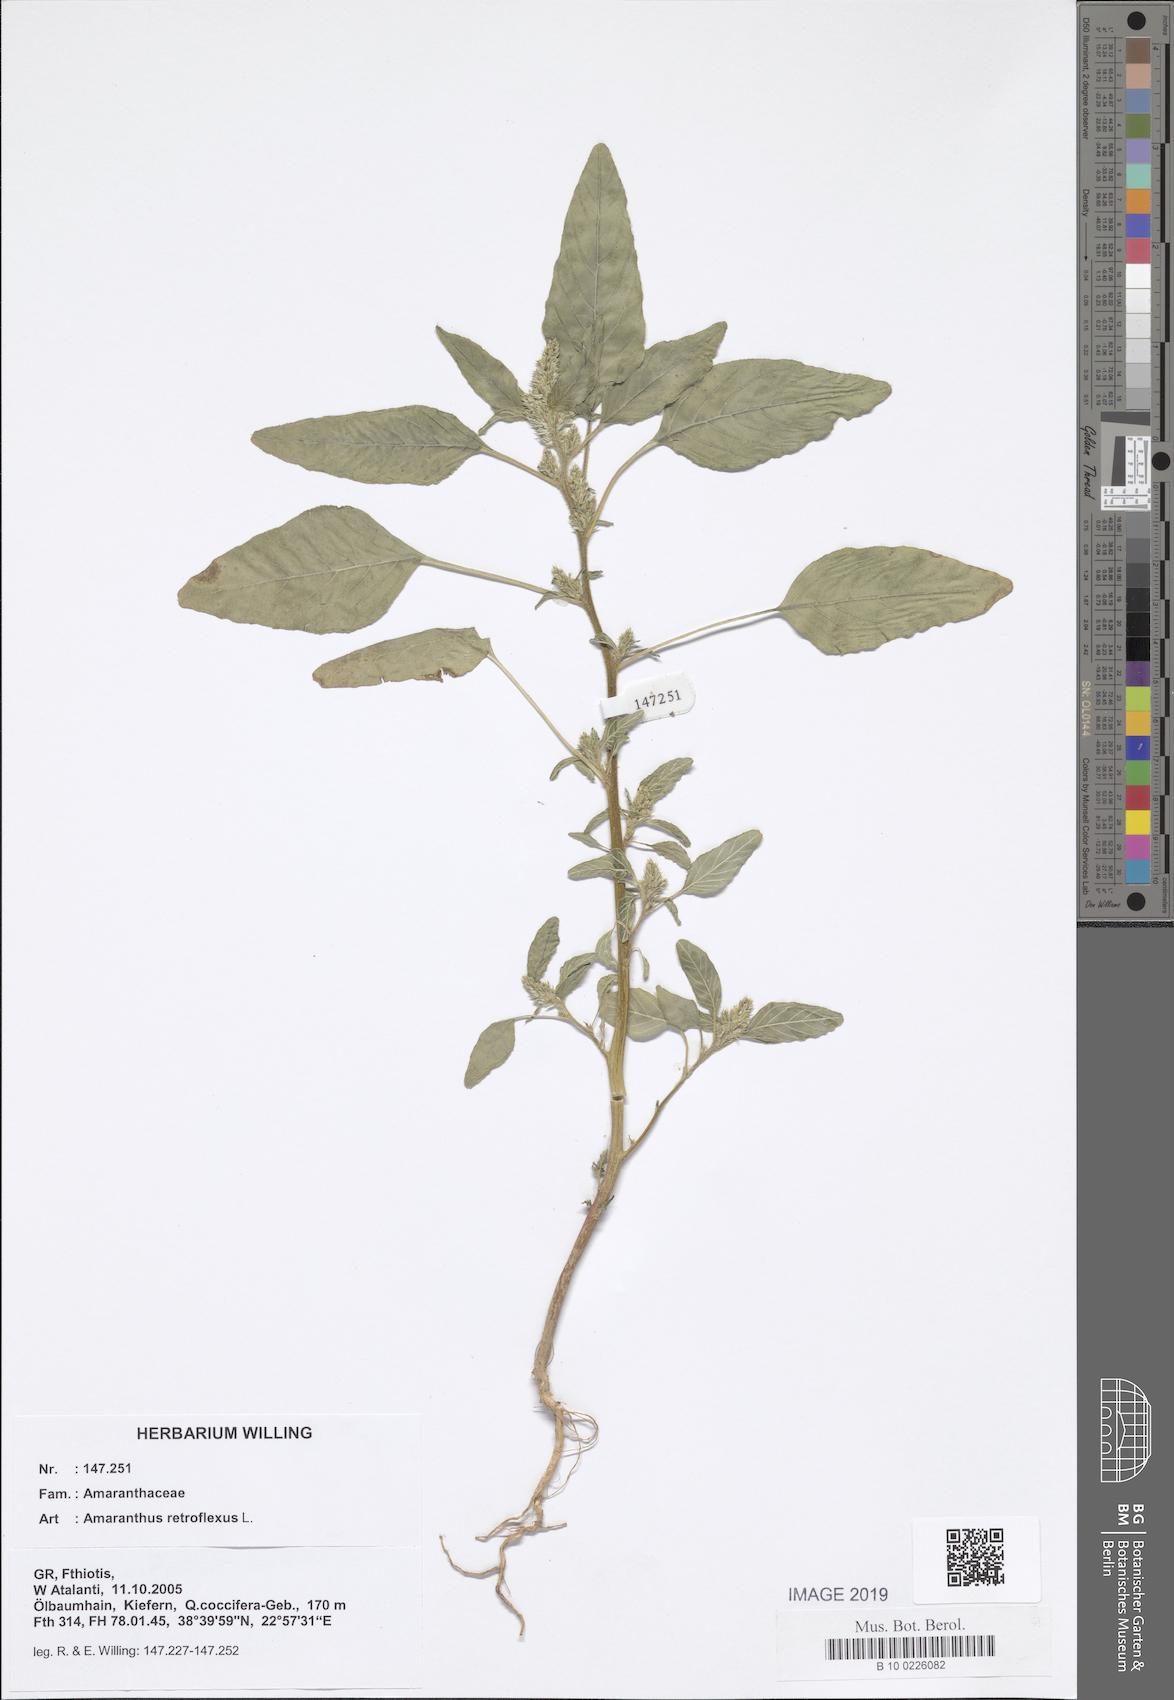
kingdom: Plantae
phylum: Tracheophyta
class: Magnoliopsida
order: Caryophyllales
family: Amaranthaceae
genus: Amaranthus
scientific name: Amaranthus retroflexus
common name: Redroot amaranth
